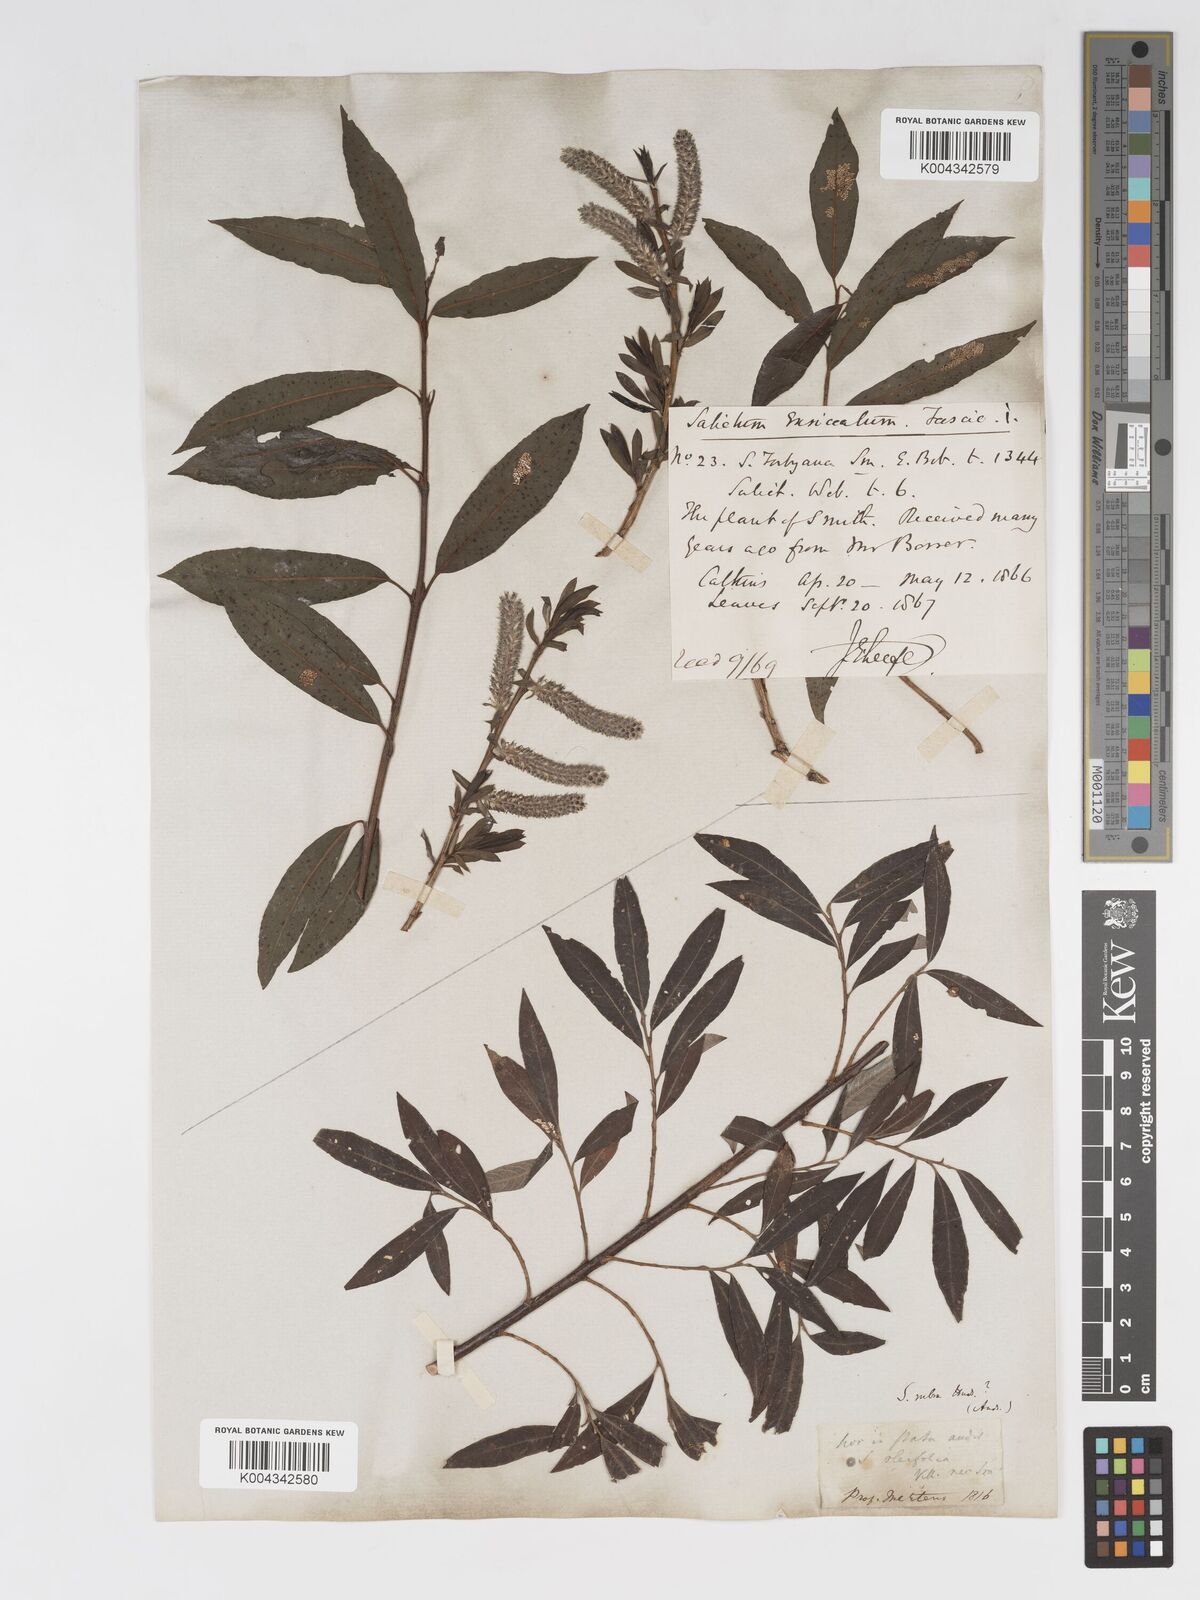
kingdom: Plantae
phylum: Tracheophyta
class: Magnoliopsida
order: Malpighiales
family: Salicaceae
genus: Salix
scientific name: Salix cinerea
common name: Common sallow
